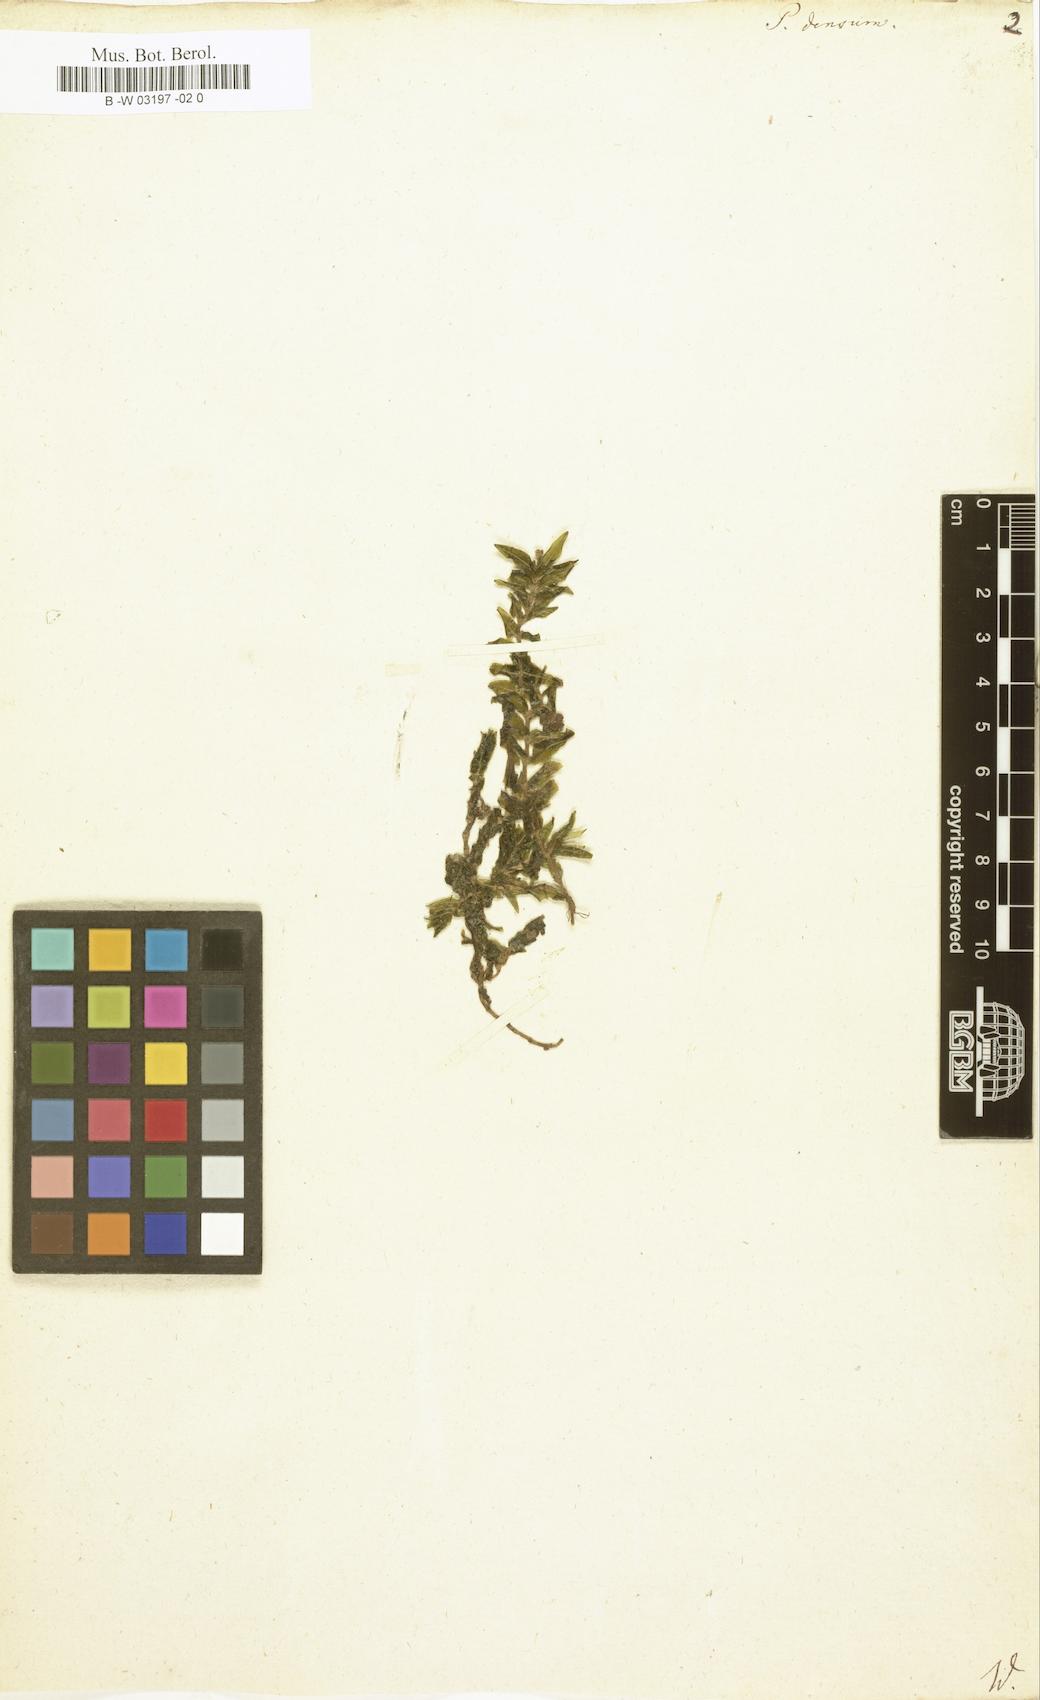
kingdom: Plantae
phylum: Tracheophyta
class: Liliopsida
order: Alismatales
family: Potamogetonaceae
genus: Groenlandia
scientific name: Groenlandia densa
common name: Opposite-leaved pondweed
